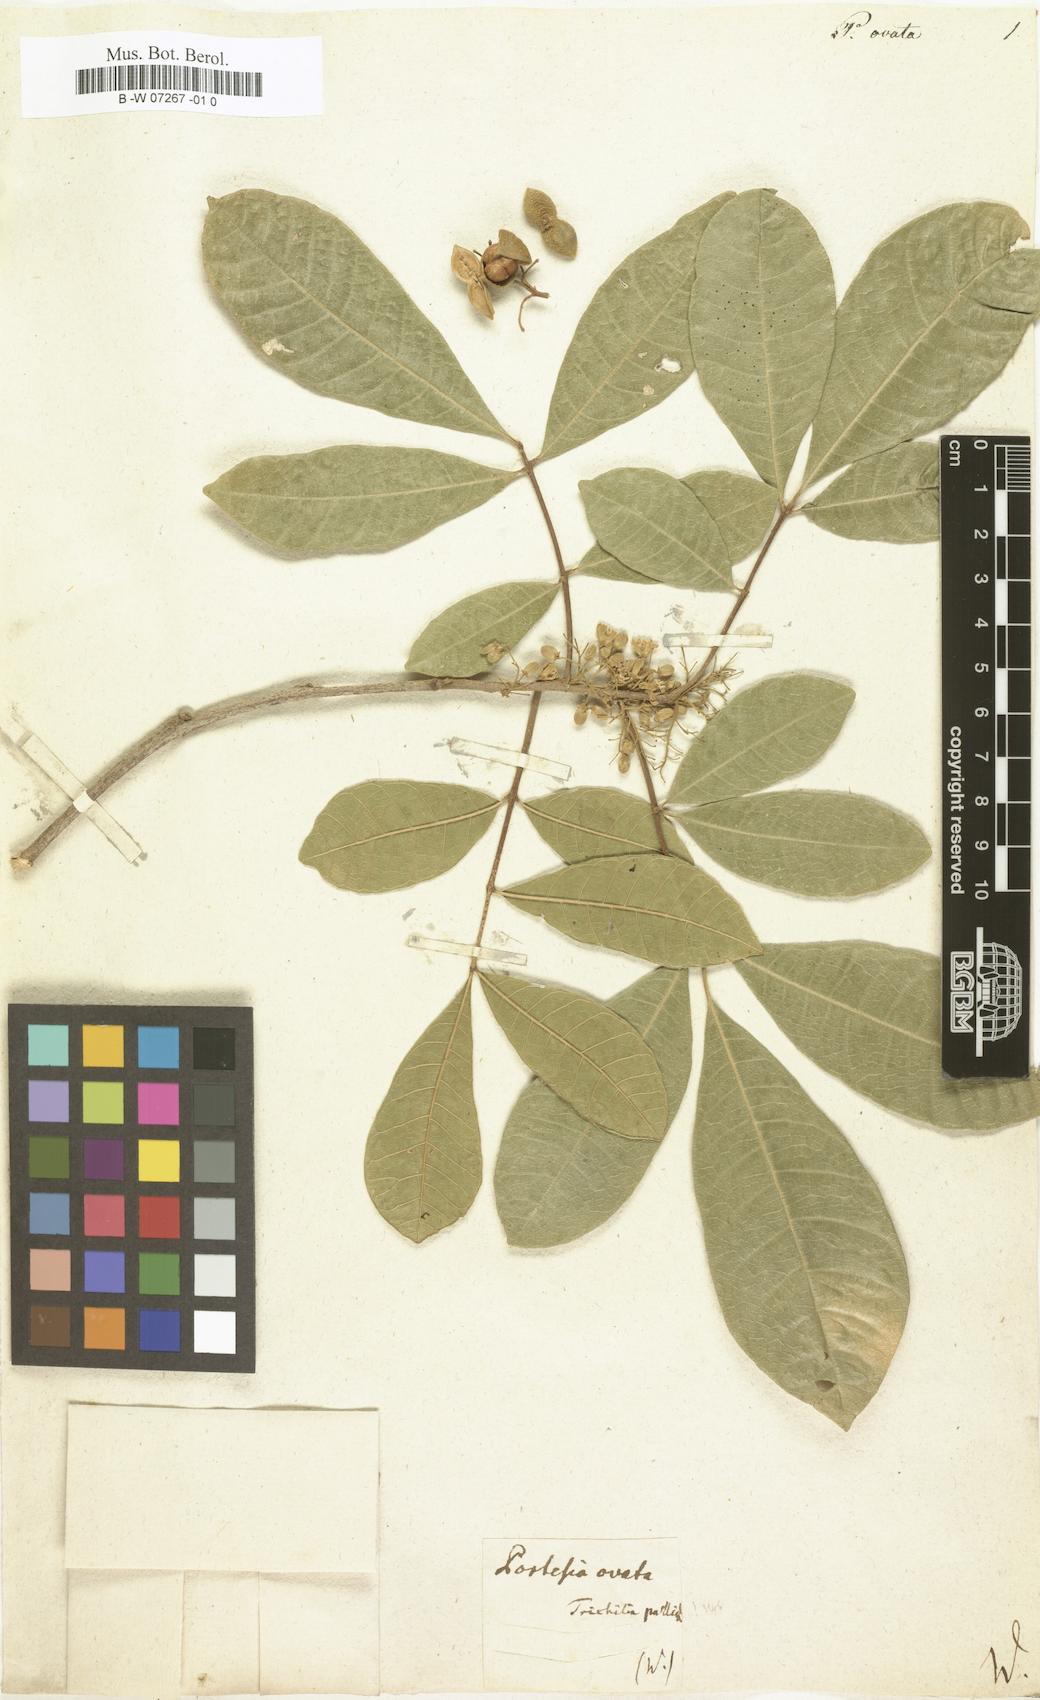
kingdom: Plantae
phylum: Tracheophyta
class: Magnoliopsida
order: Sapindales
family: Meliaceae
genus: Trichilia
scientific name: Trichilia
